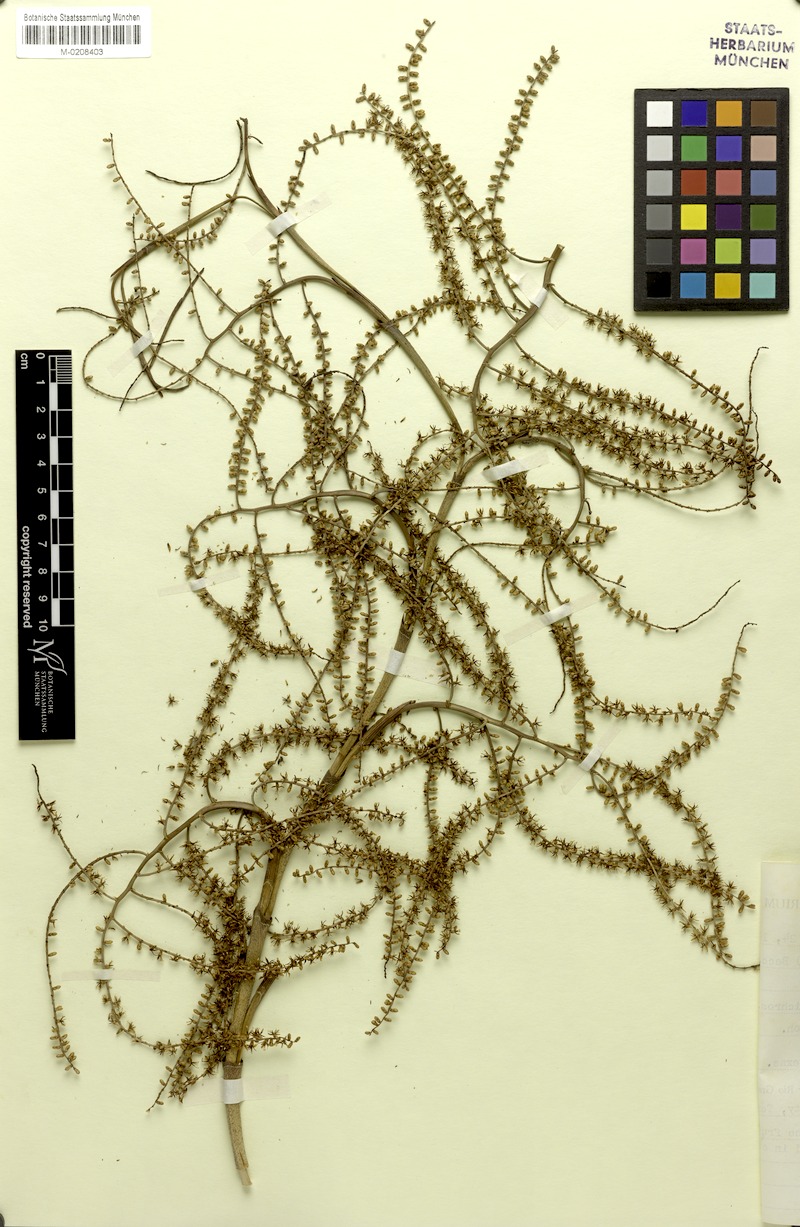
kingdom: Plantae
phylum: Tracheophyta
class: Liliopsida
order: Arecales
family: Arecaceae
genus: Sabal
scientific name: Sabal mexicana
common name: Texas palmetto
